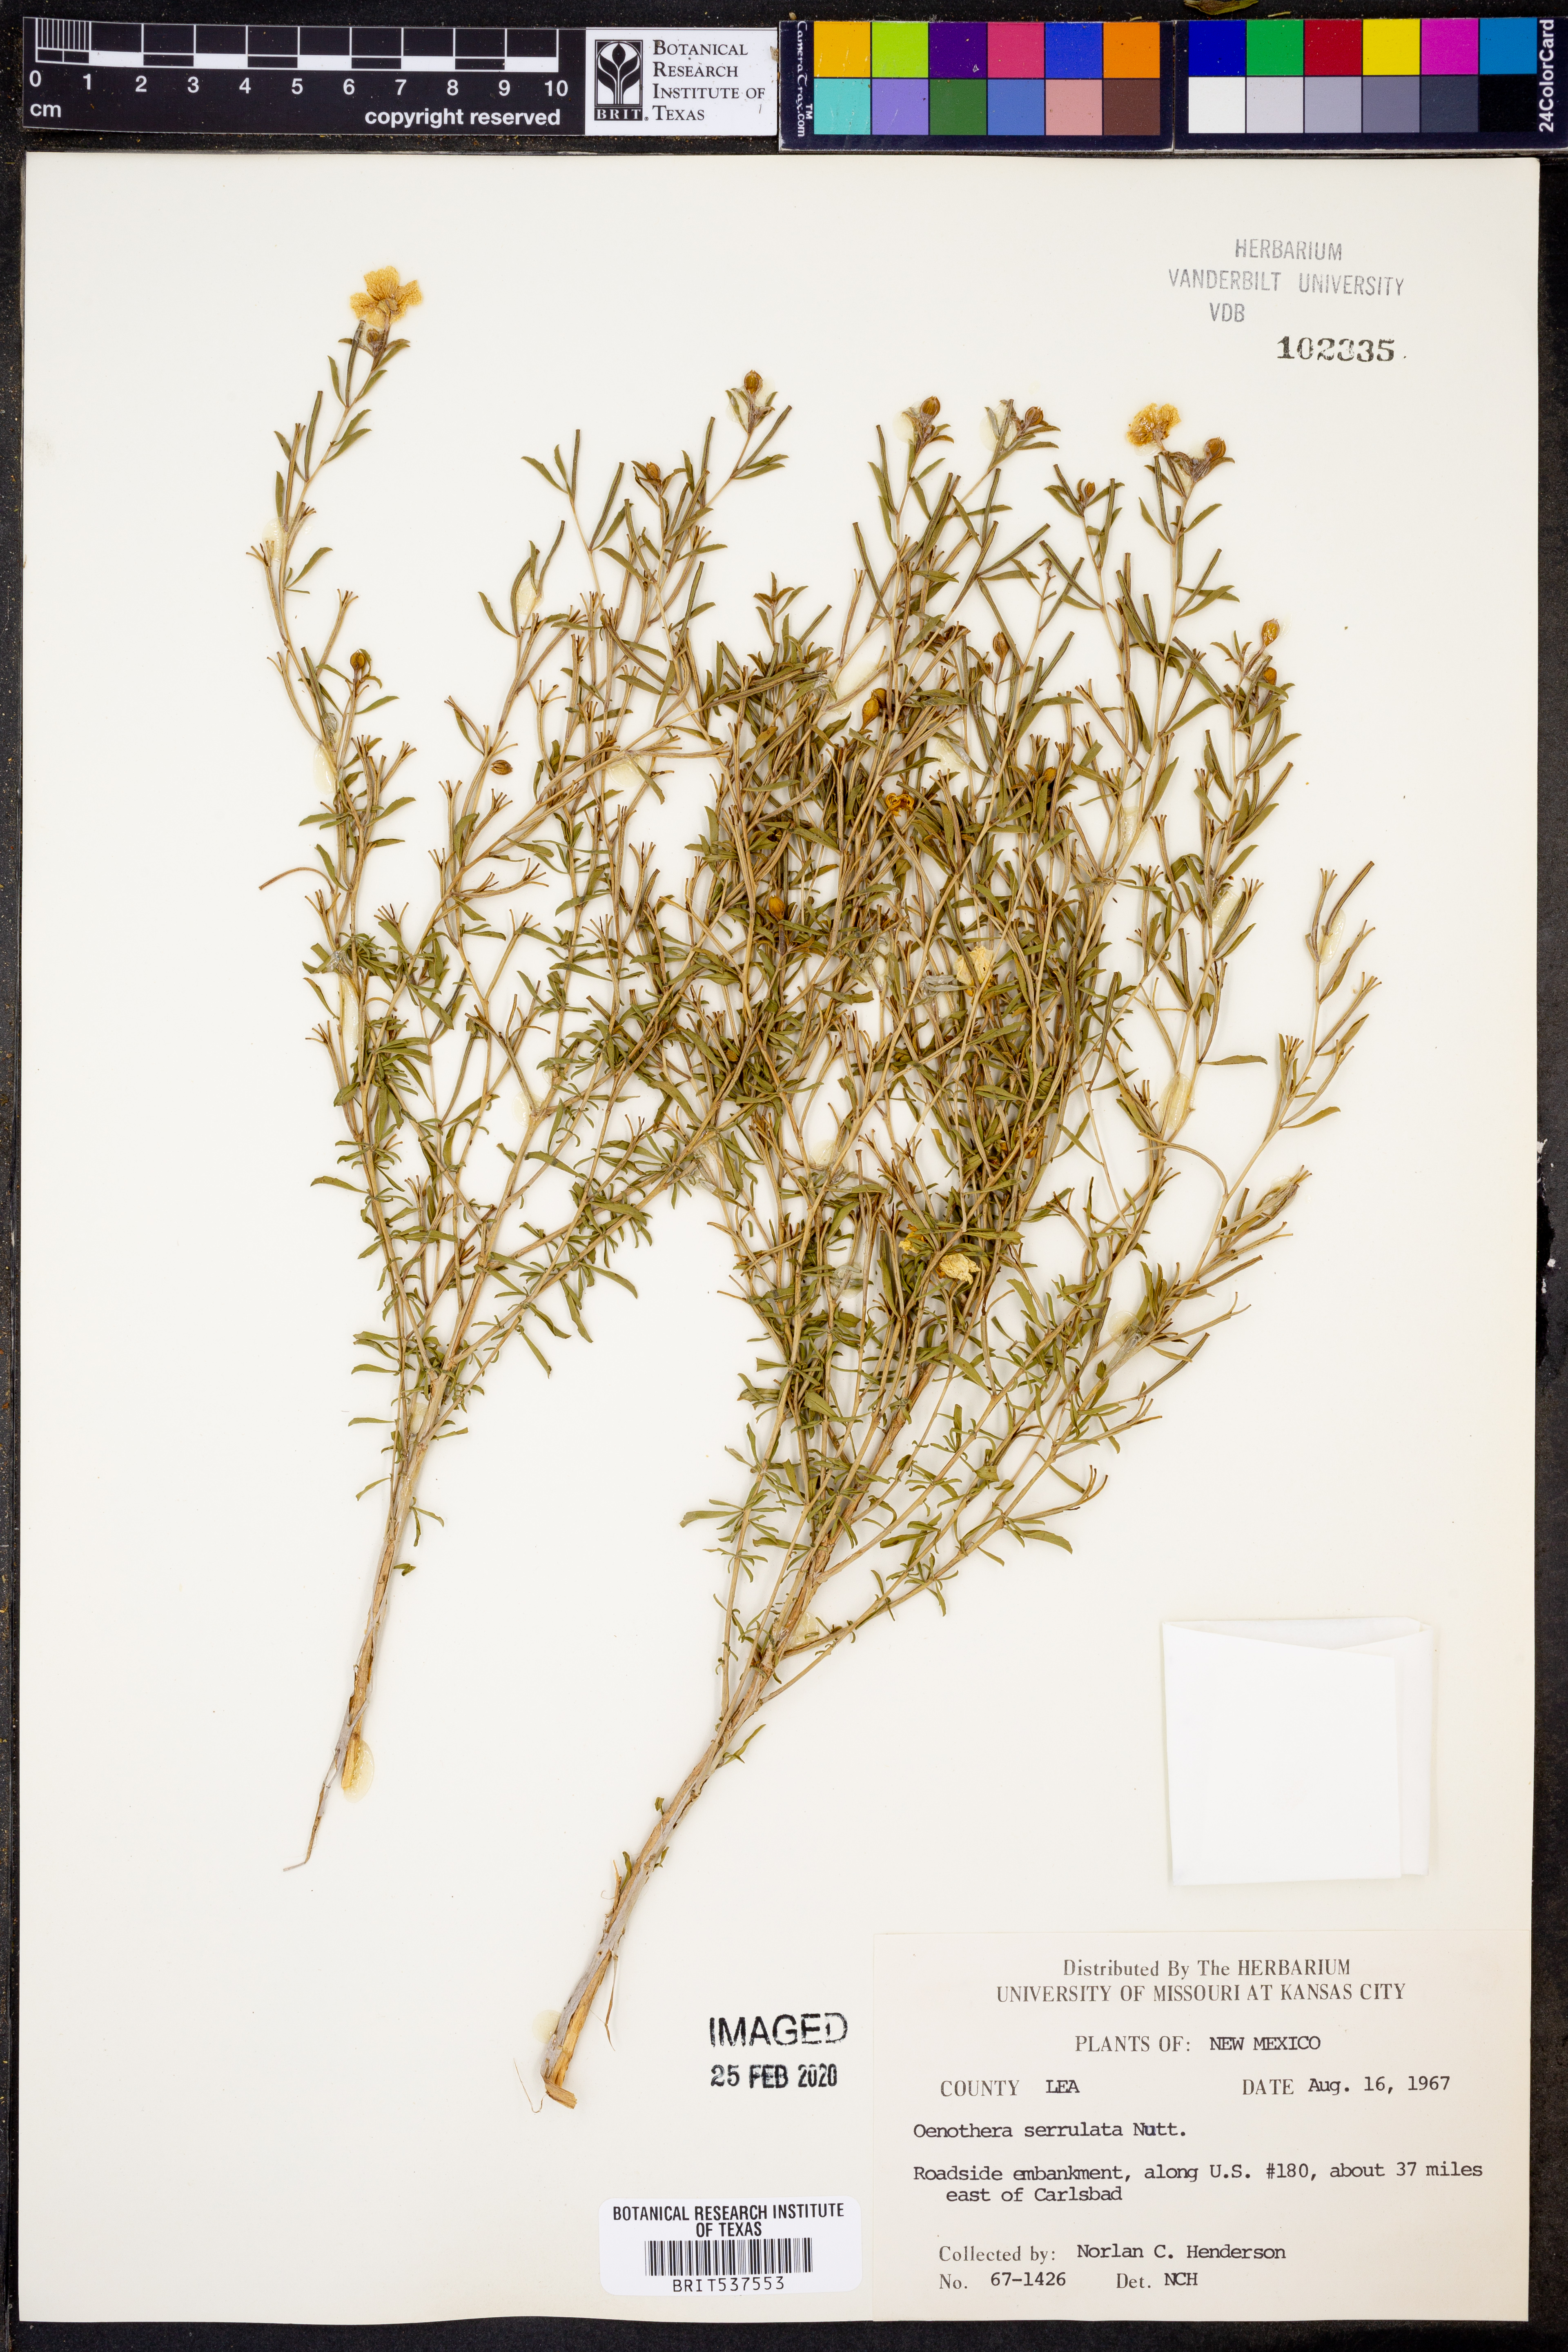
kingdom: Plantae
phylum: Tracheophyta
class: Magnoliopsida
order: Myrtales
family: Onagraceae
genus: Oenothera
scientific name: Oenothera serrulata
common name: Half-shrub calylophus
